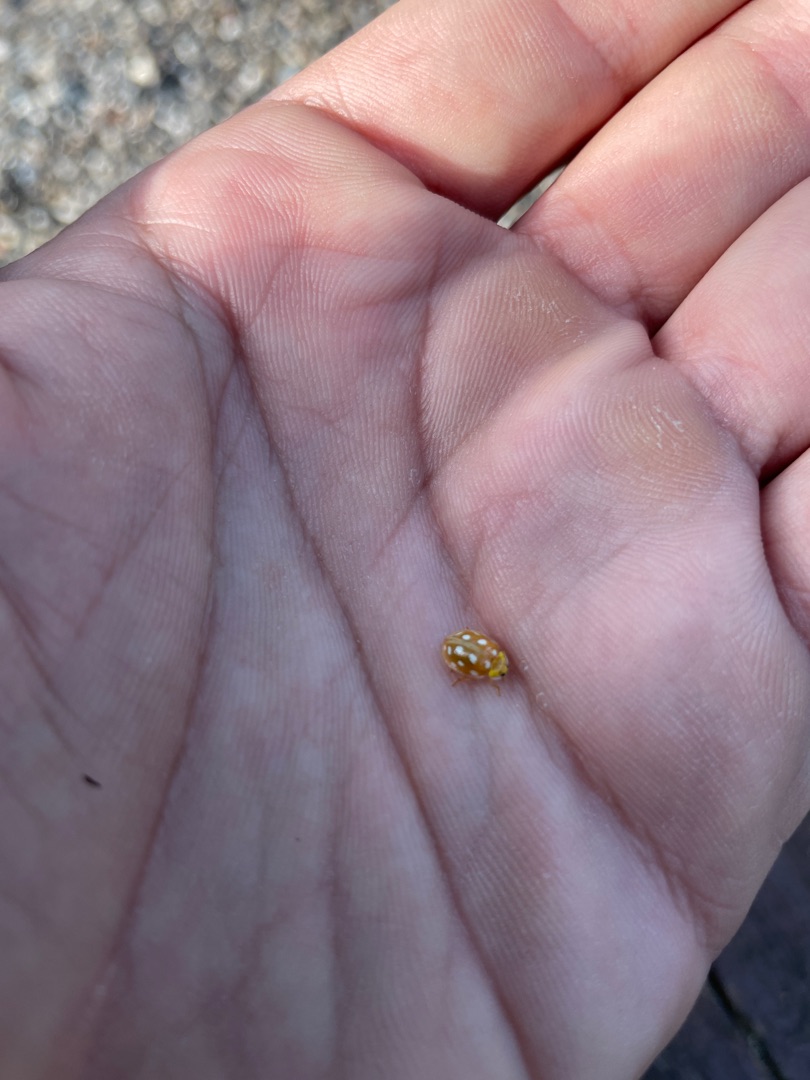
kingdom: Animalia
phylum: Arthropoda
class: Insecta
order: Coleoptera
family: Coccinellidae
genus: Halyzia
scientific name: Halyzia sedecimguttata
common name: Sekstenplettet mariehøne
